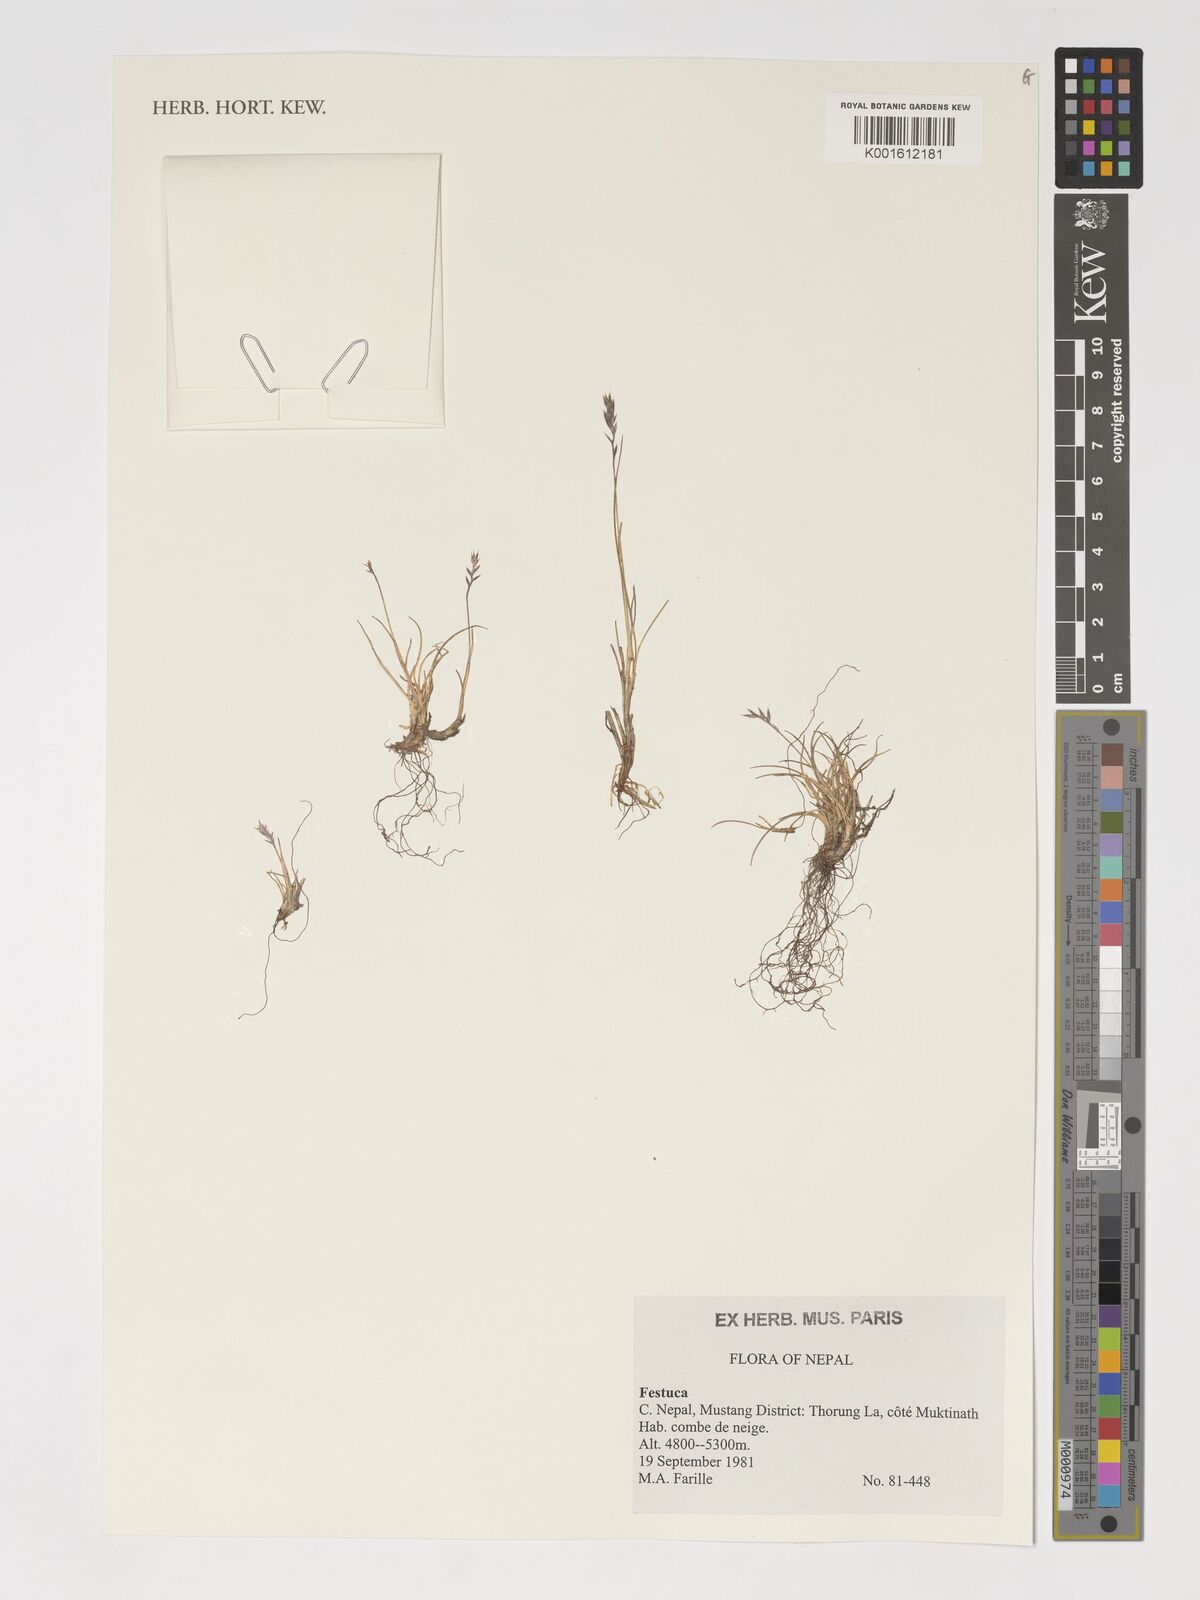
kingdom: Plantae
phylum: Tracheophyta
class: Liliopsida
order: Poales
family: Poaceae
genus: Festuca
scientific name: Festuca
